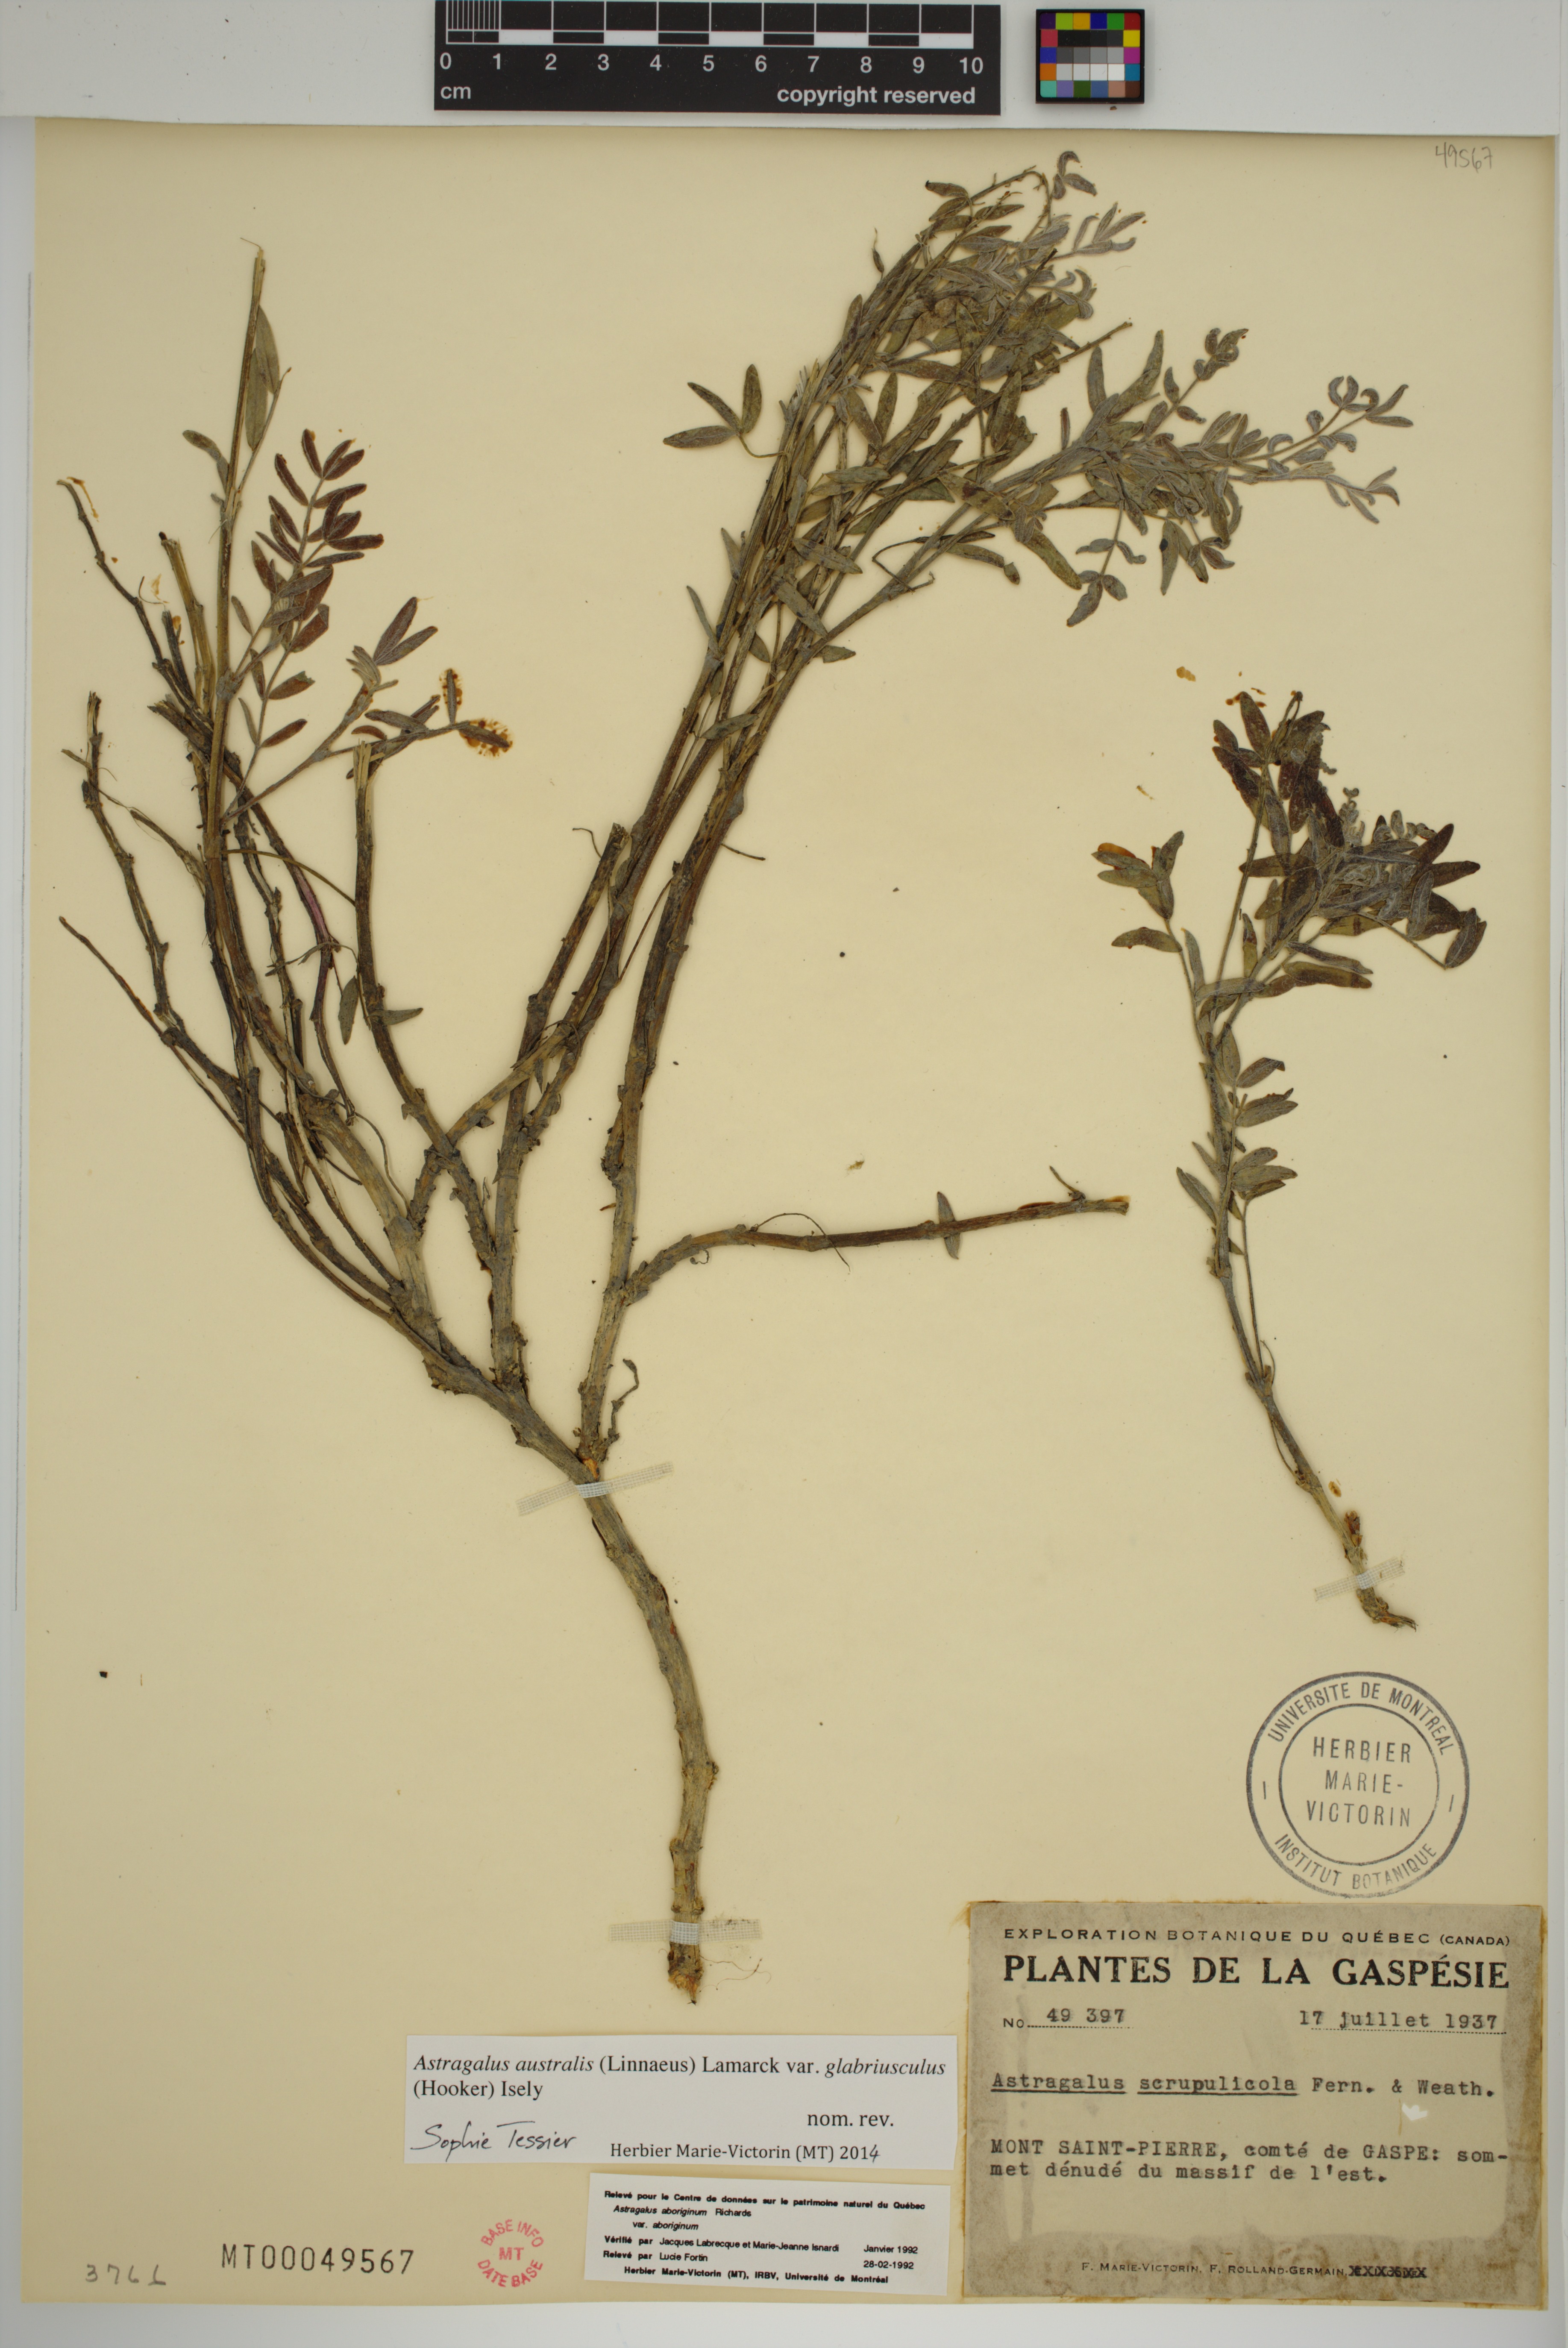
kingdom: Plantae
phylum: Tracheophyta
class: Magnoliopsida
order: Fabales
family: Fabaceae
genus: Astragalus
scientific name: Astragalus aboriginorum
